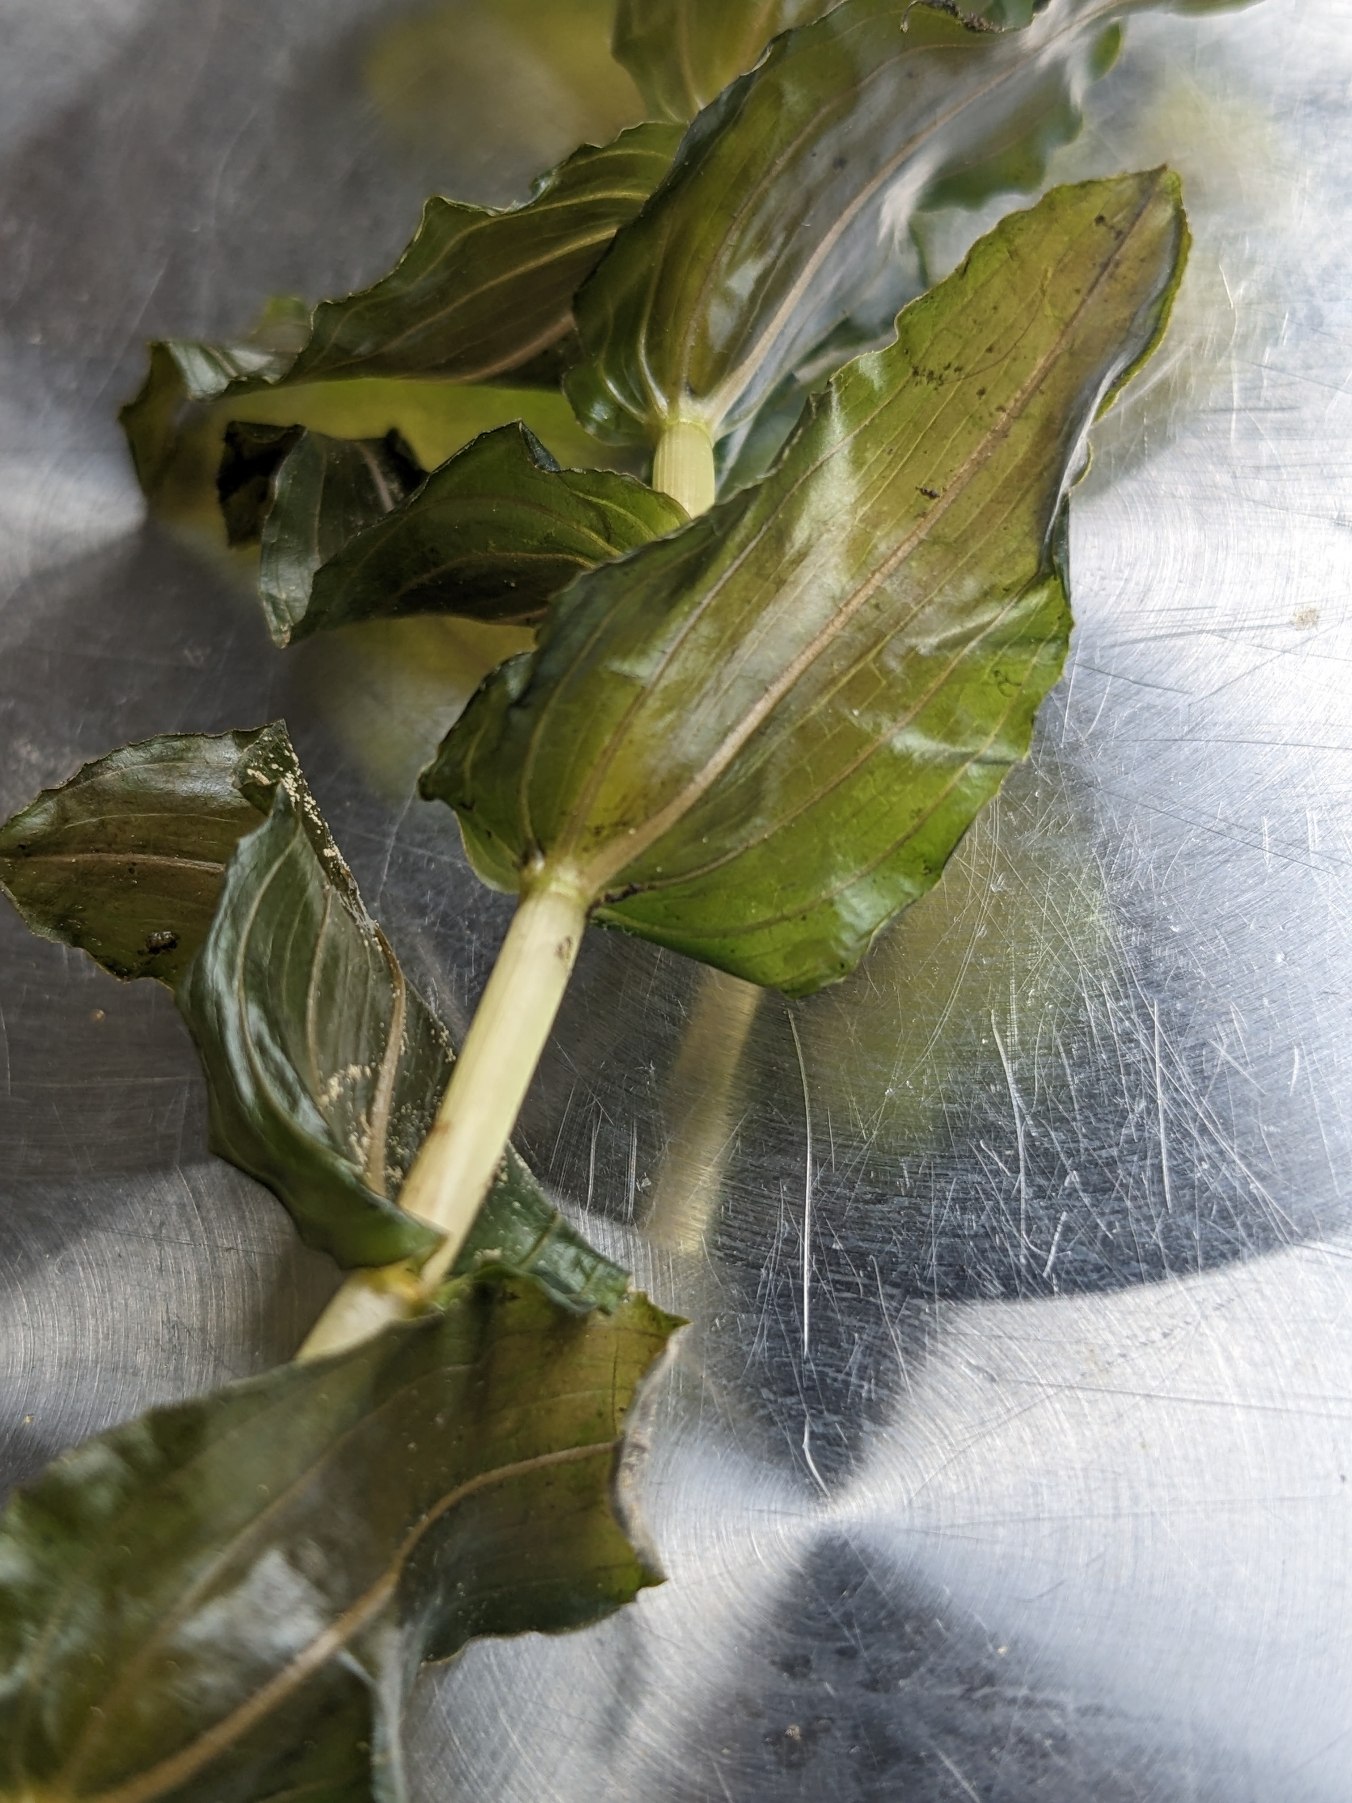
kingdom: Plantae
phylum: Tracheophyta
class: Liliopsida
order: Alismatales
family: Potamogetonaceae
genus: Potamogeton
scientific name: Potamogeton perfoliatus
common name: Hjertebladet vandaks
